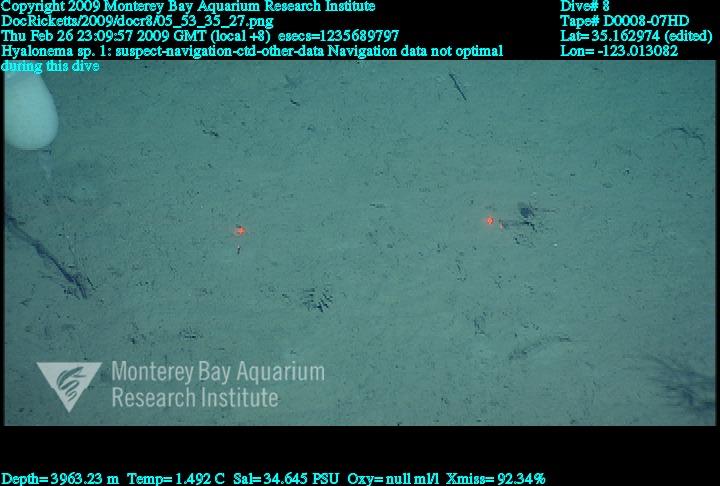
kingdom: Animalia
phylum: Porifera
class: Hexactinellida
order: Amphidiscosida
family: Hyalonematidae
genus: Hyalonema
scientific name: Hyalonema
